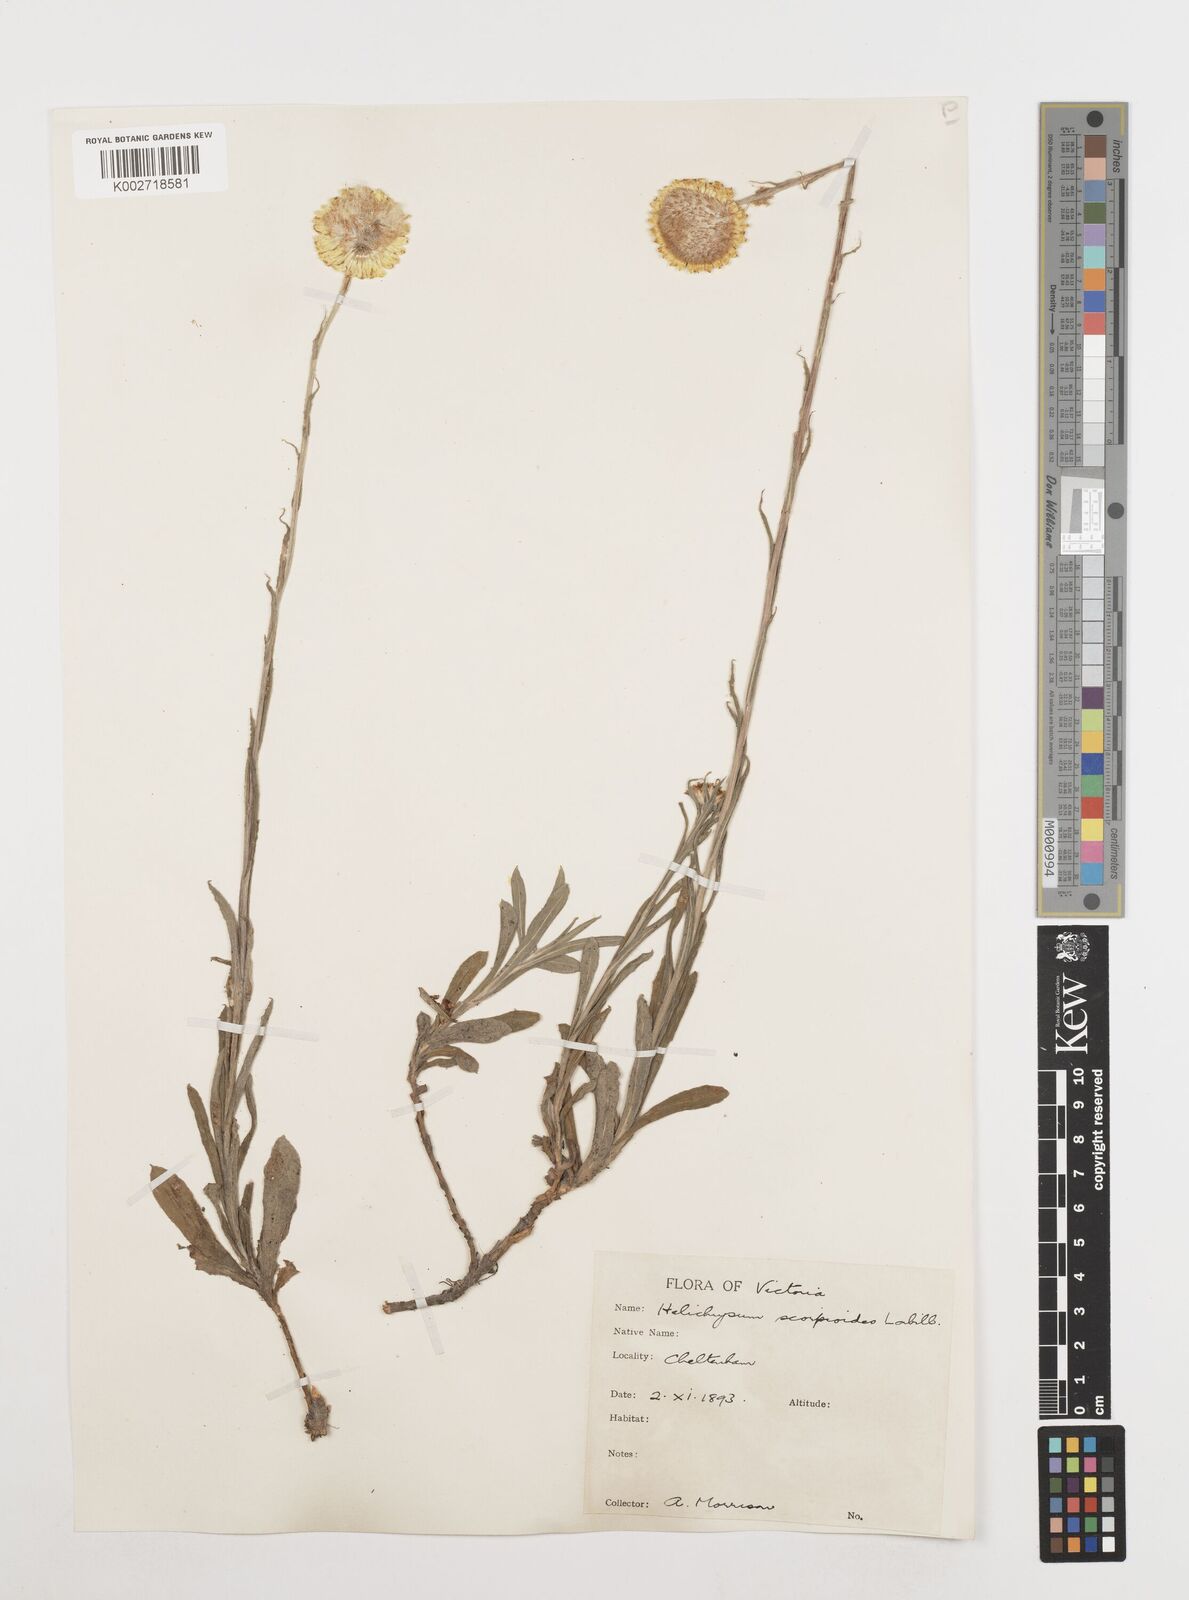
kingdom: Plantae
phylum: Tracheophyta
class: Magnoliopsida
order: Asterales
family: Asteraceae
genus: Coronidium
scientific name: Coronidium scorpioides
